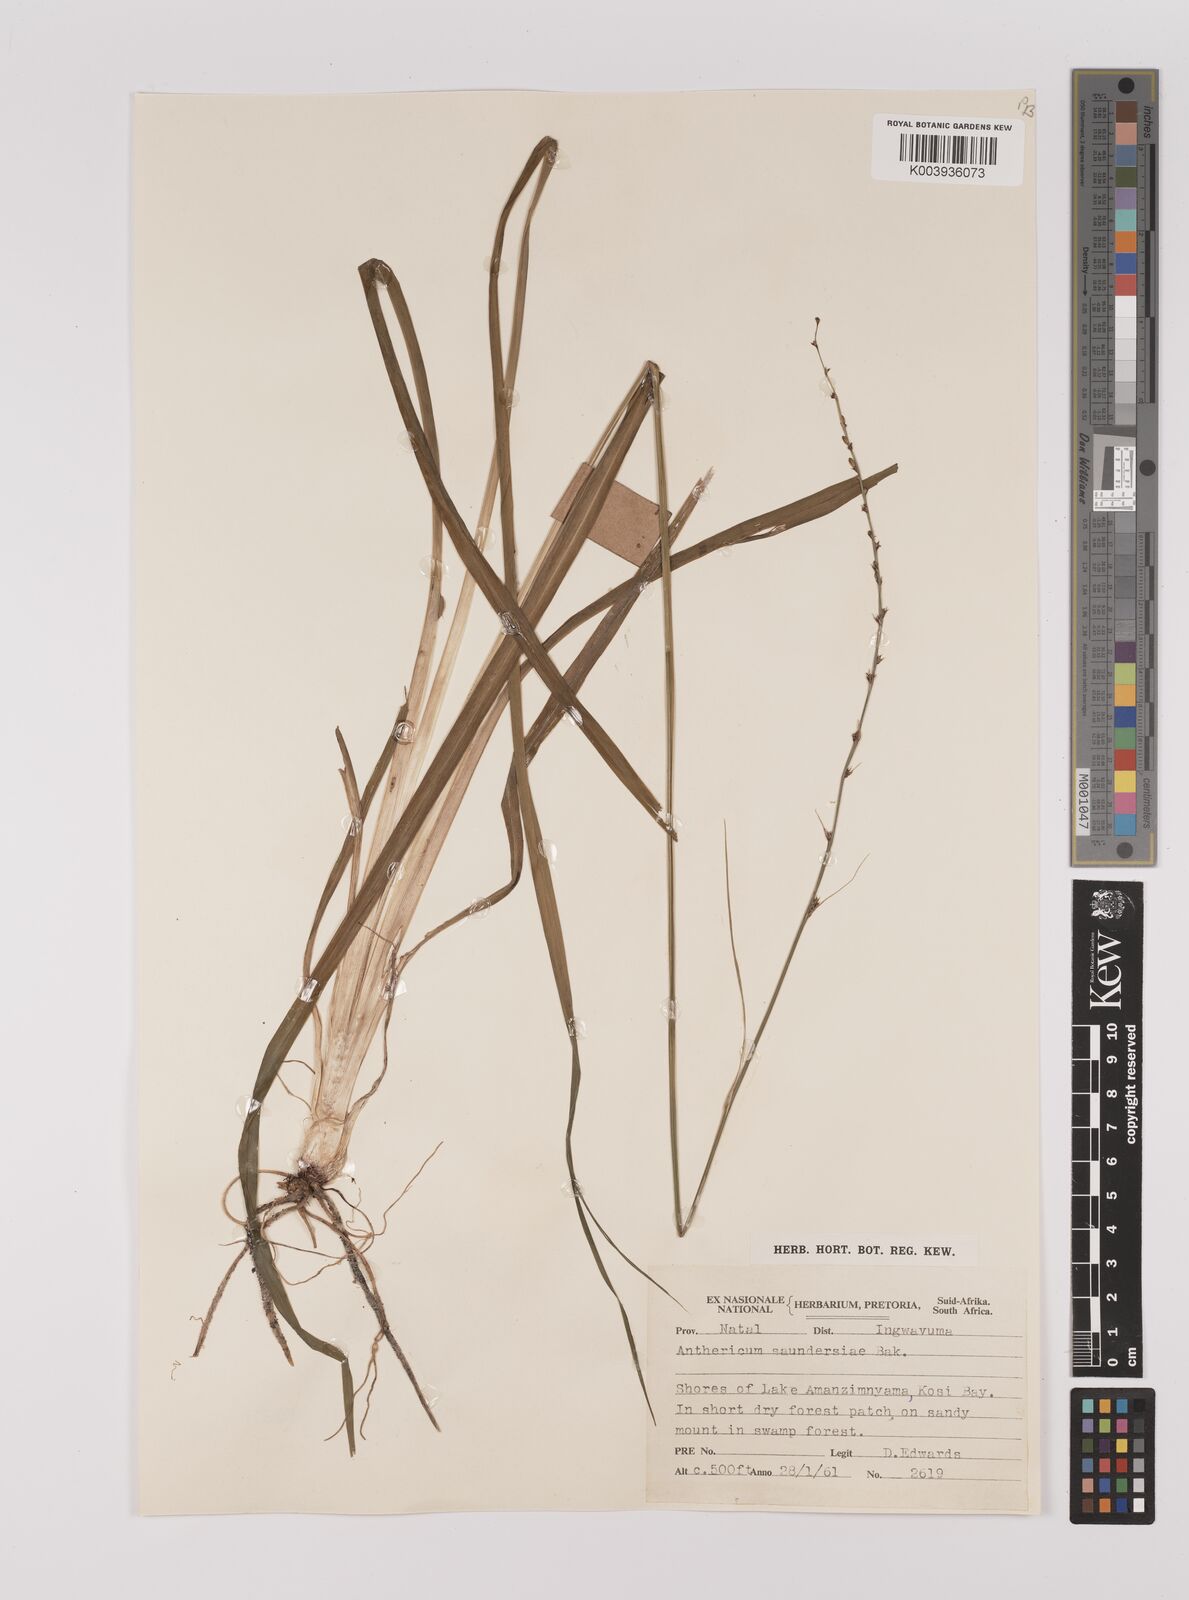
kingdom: Plantae
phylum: Tracheophyta
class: Liliopsida
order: Asparagales
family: Asparagaceae
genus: Chlorophytum
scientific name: Chlorophytum saundersiae
